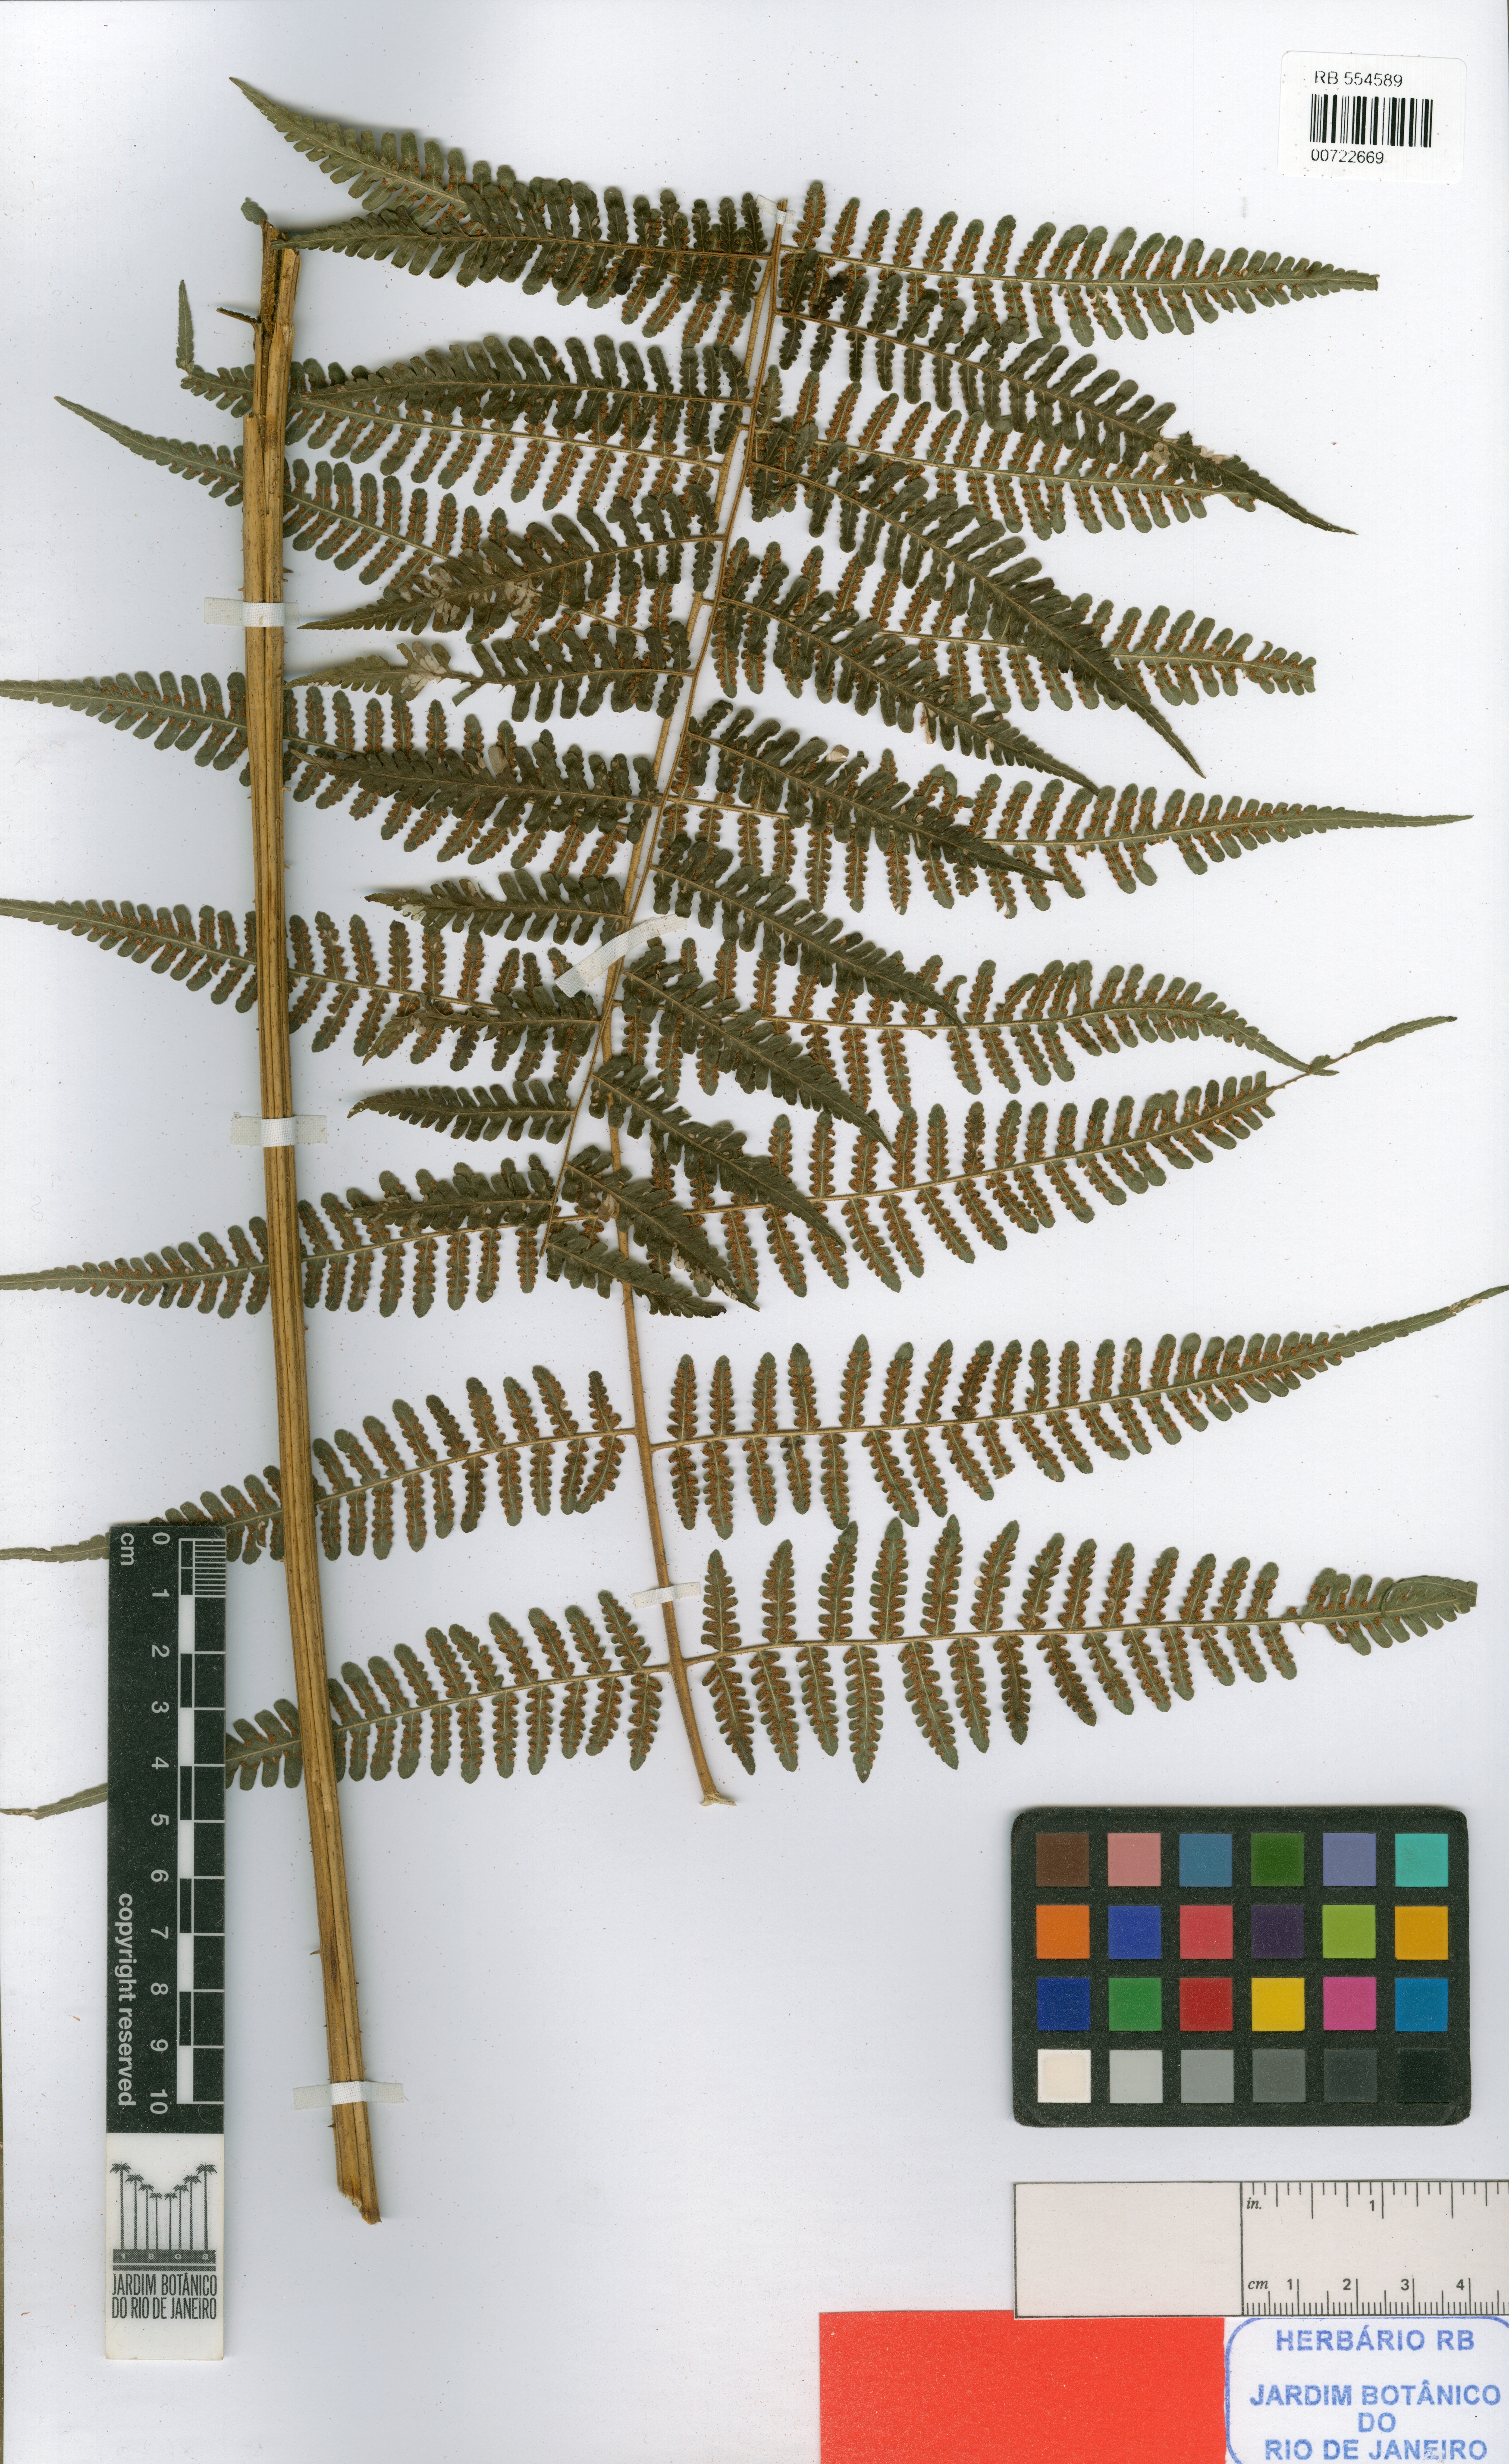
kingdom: Plantae
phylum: Tracheophyta
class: Polypodiopsida
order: Polypodiales
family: Dennstaedtiaceae
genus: Hypolepis
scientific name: Hypolepis acantha
